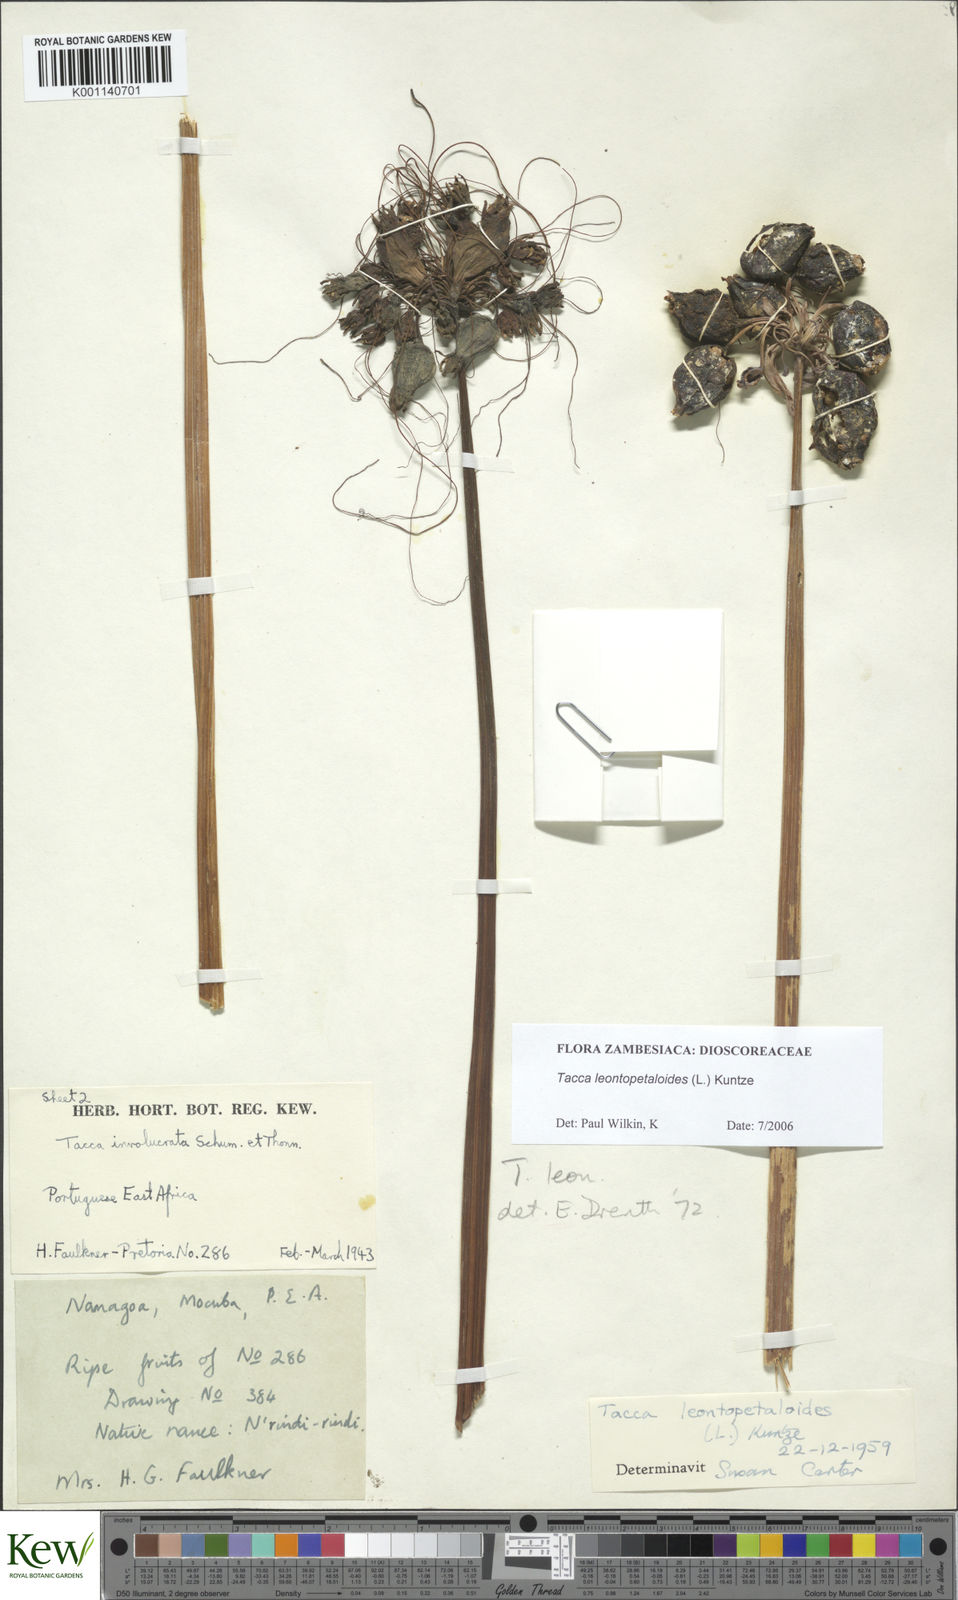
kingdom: Plantae
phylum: Tracheophyta
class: Liliopsida
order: Dioscoreales
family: Dioscoreaceae
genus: Tacca
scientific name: Tacca leontopetaloides
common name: Arrowroot
